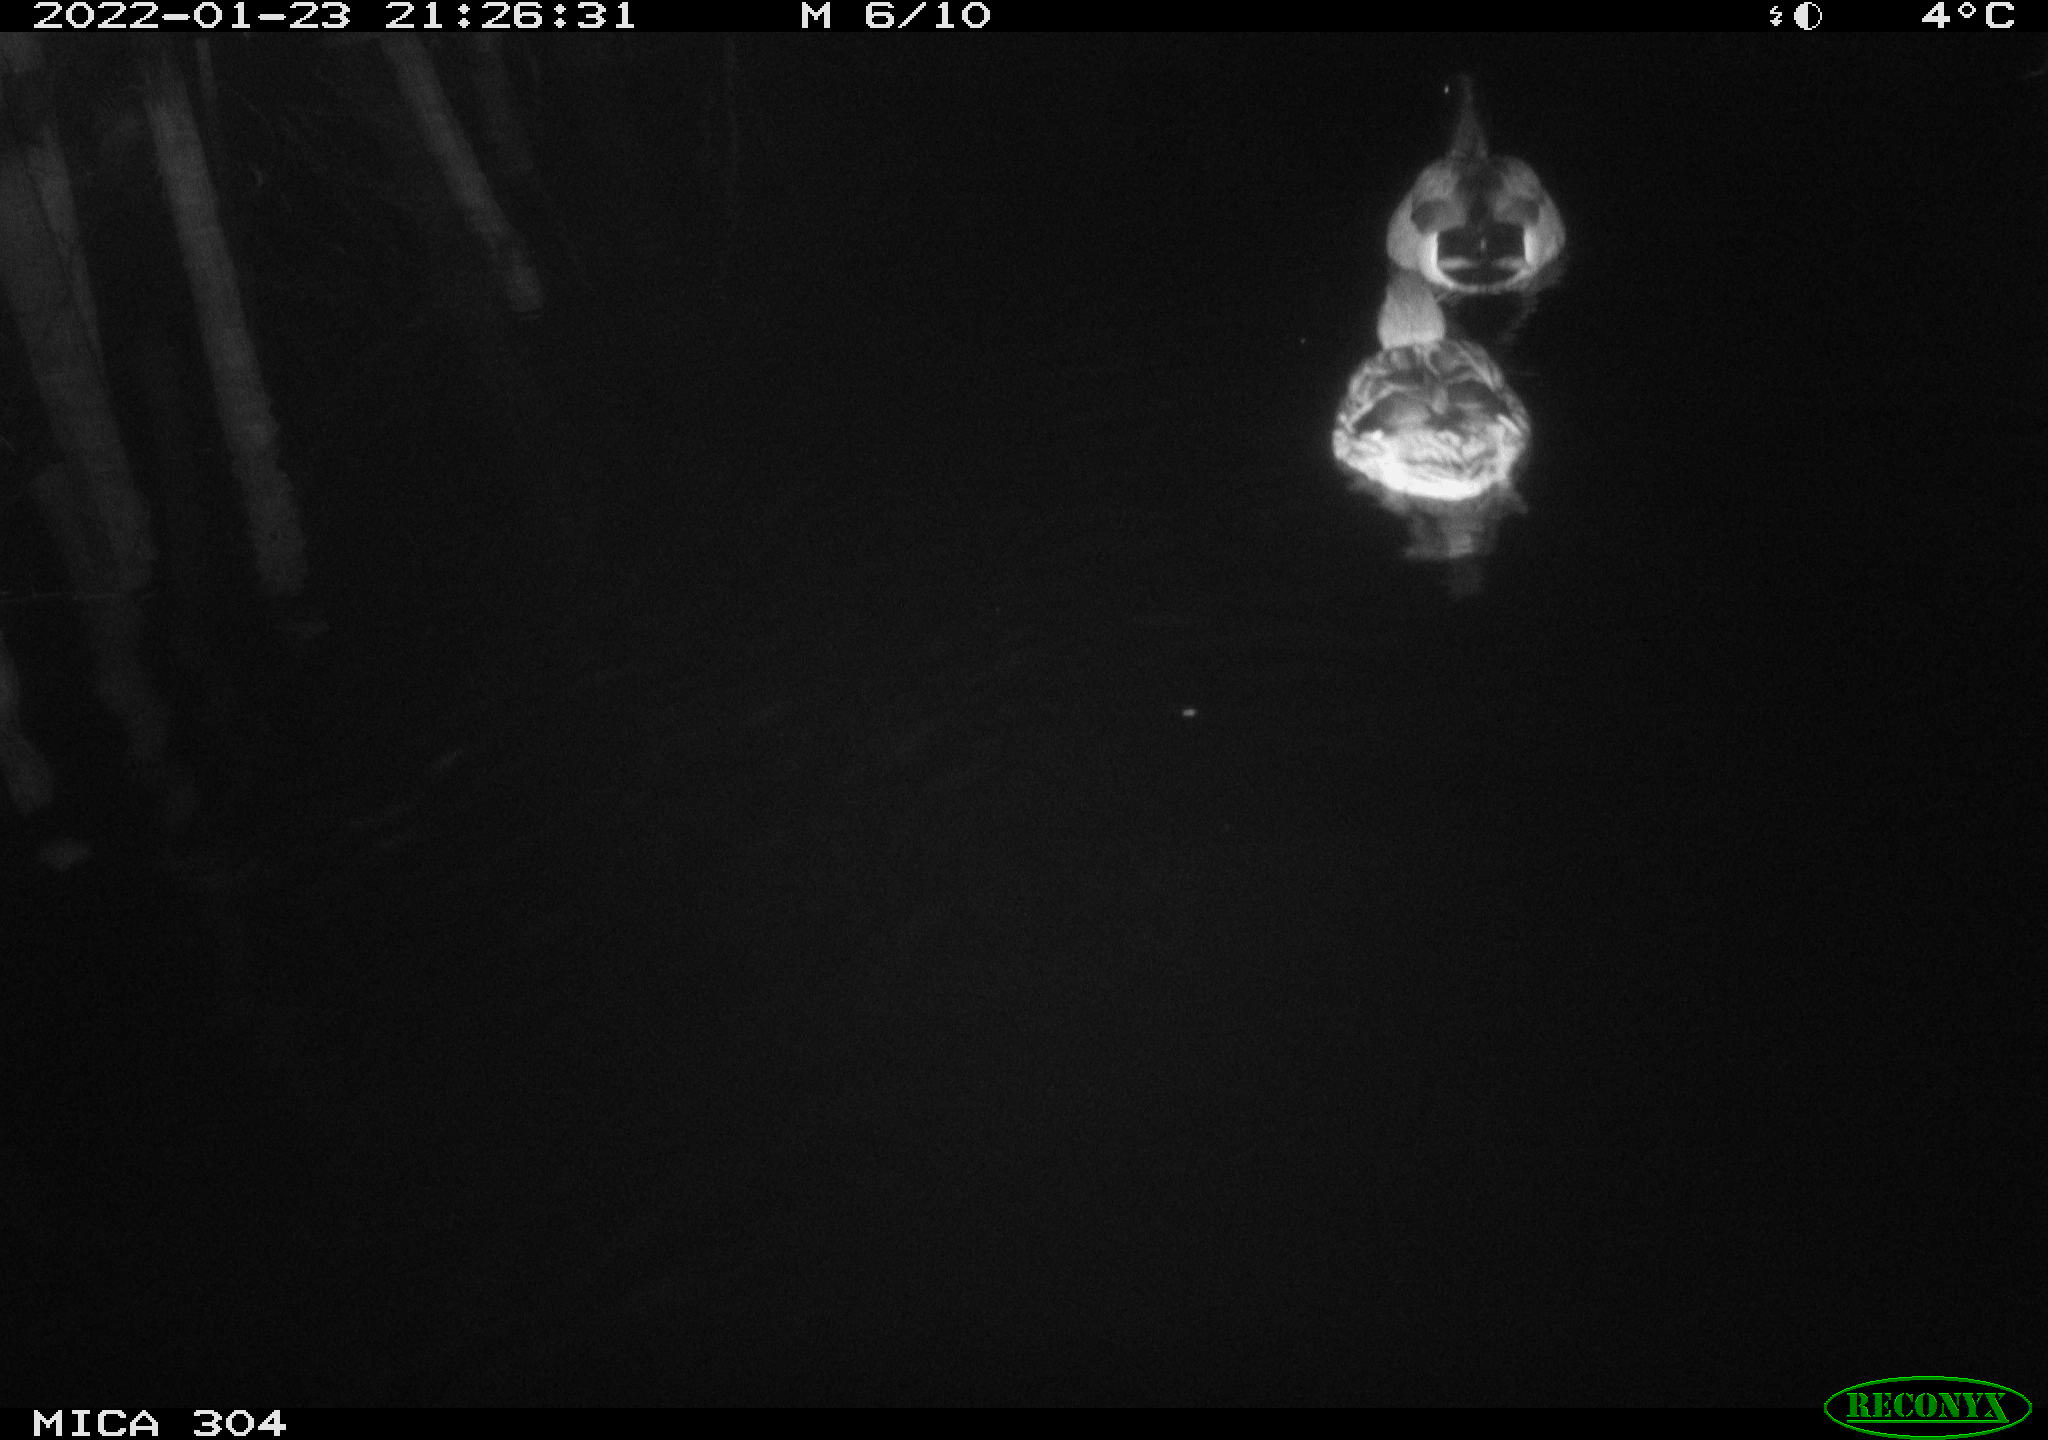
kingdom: Animalia
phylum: Chordata
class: Aves
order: Anseriformes
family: Anatidae
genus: Anas
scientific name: Anas
